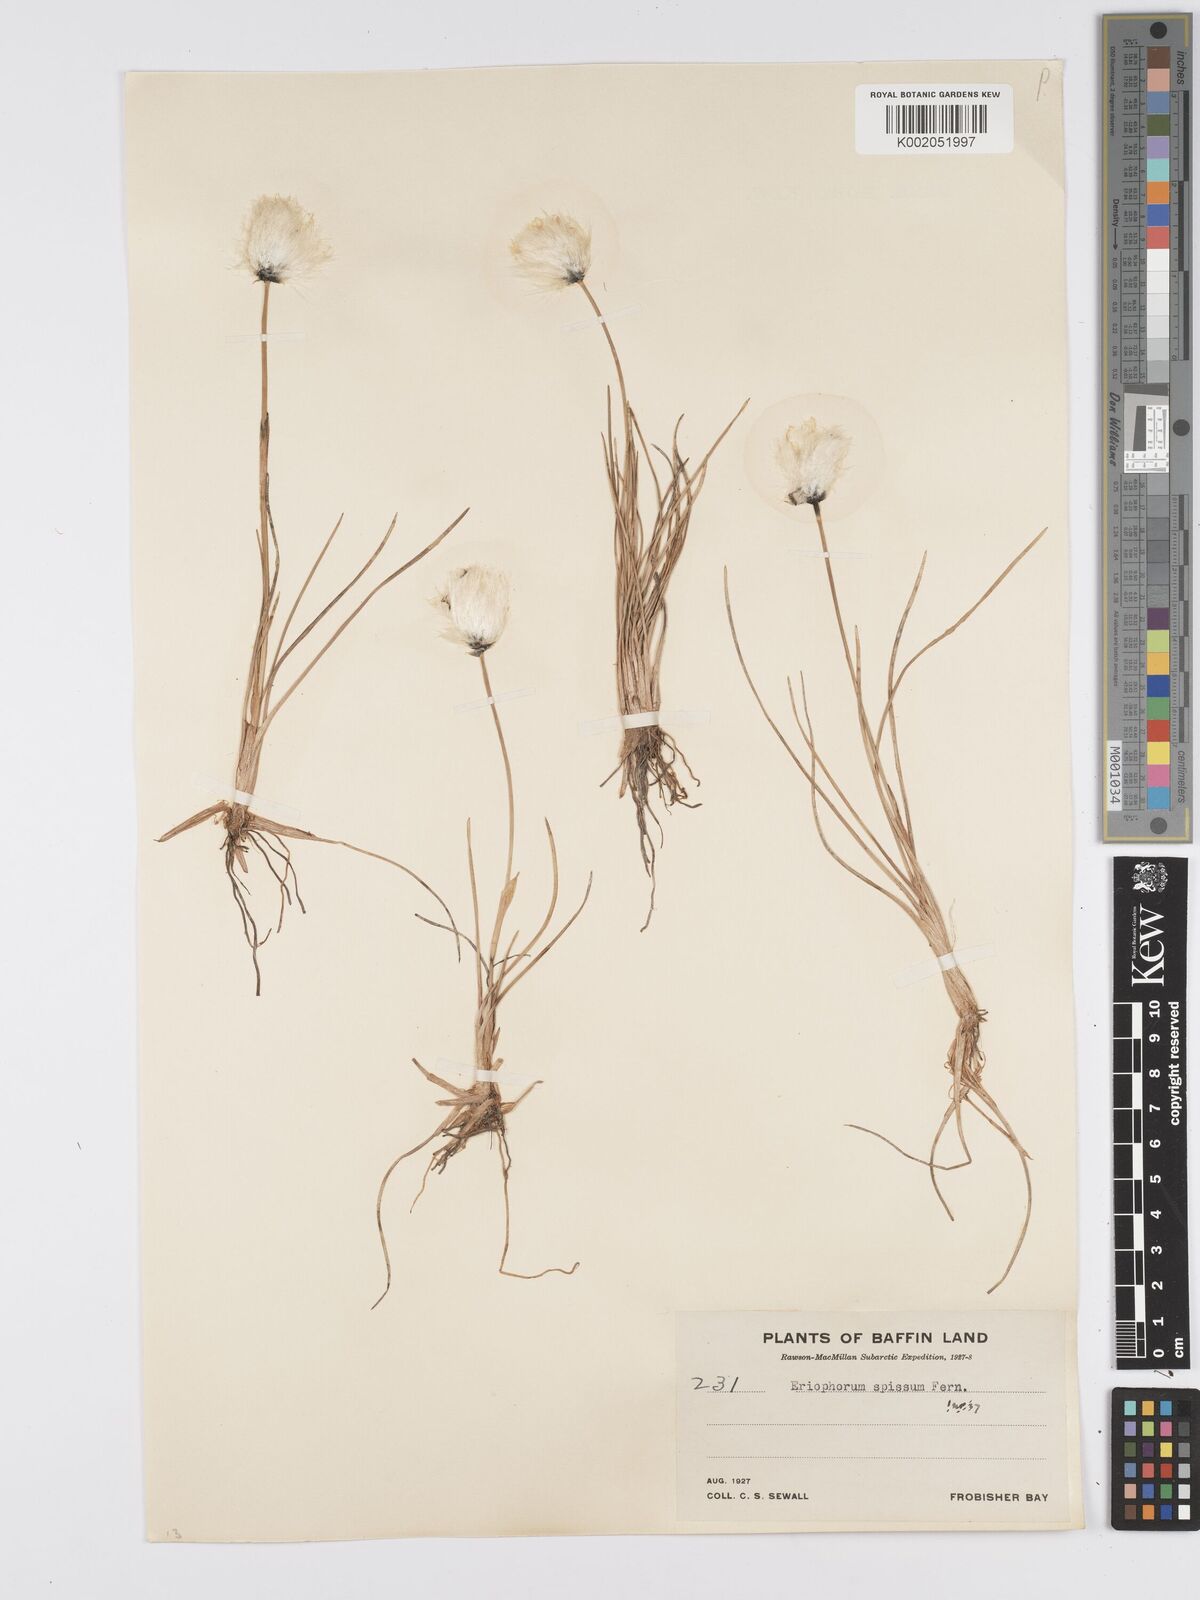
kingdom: Plantae
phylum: Tracheophyta
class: Liliopsida
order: Poales
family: Cyperaceae
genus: Eriophorum
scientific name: Eriophorum vaginatum
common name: Hare's-tail cottongrass
